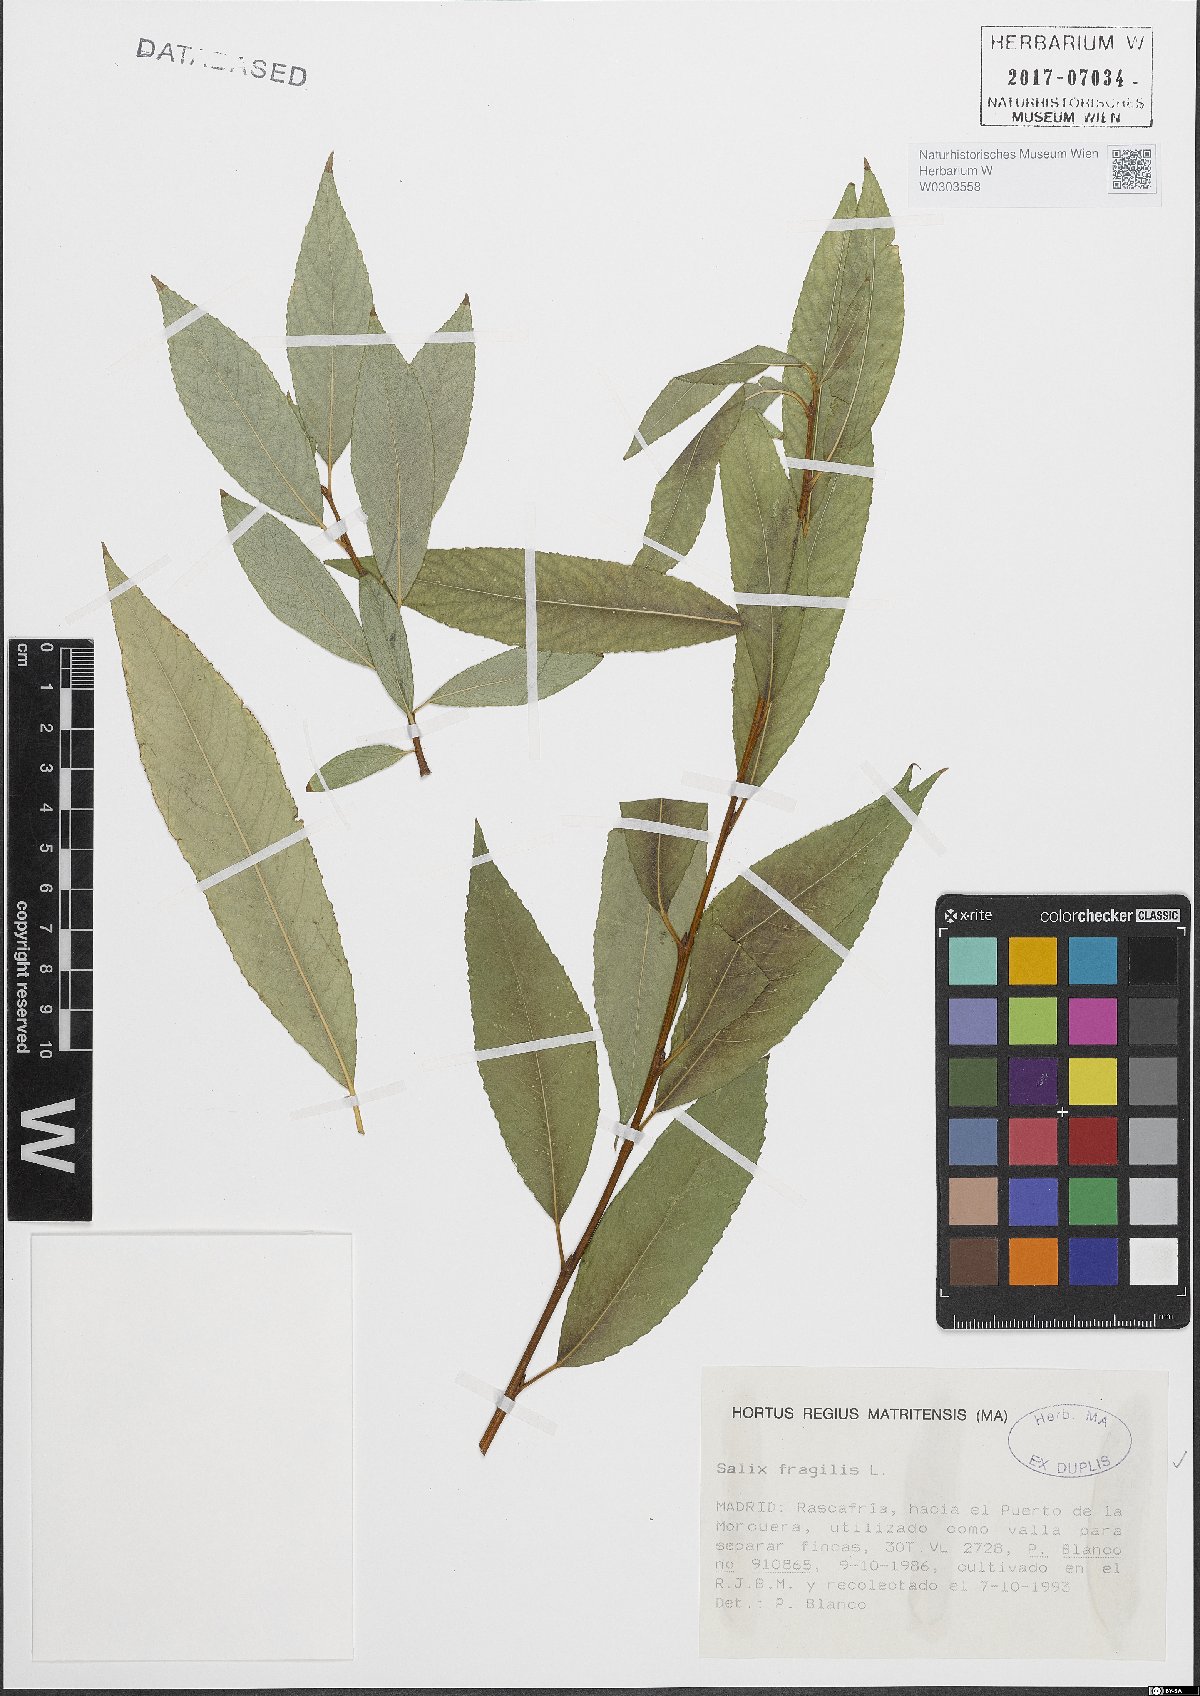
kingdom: Plantae
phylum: Tracheophyta
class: Magnoliopsida
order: Malpighiales
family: Salicaceae
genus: Salix
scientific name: Salix fragilis
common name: Crack willow
